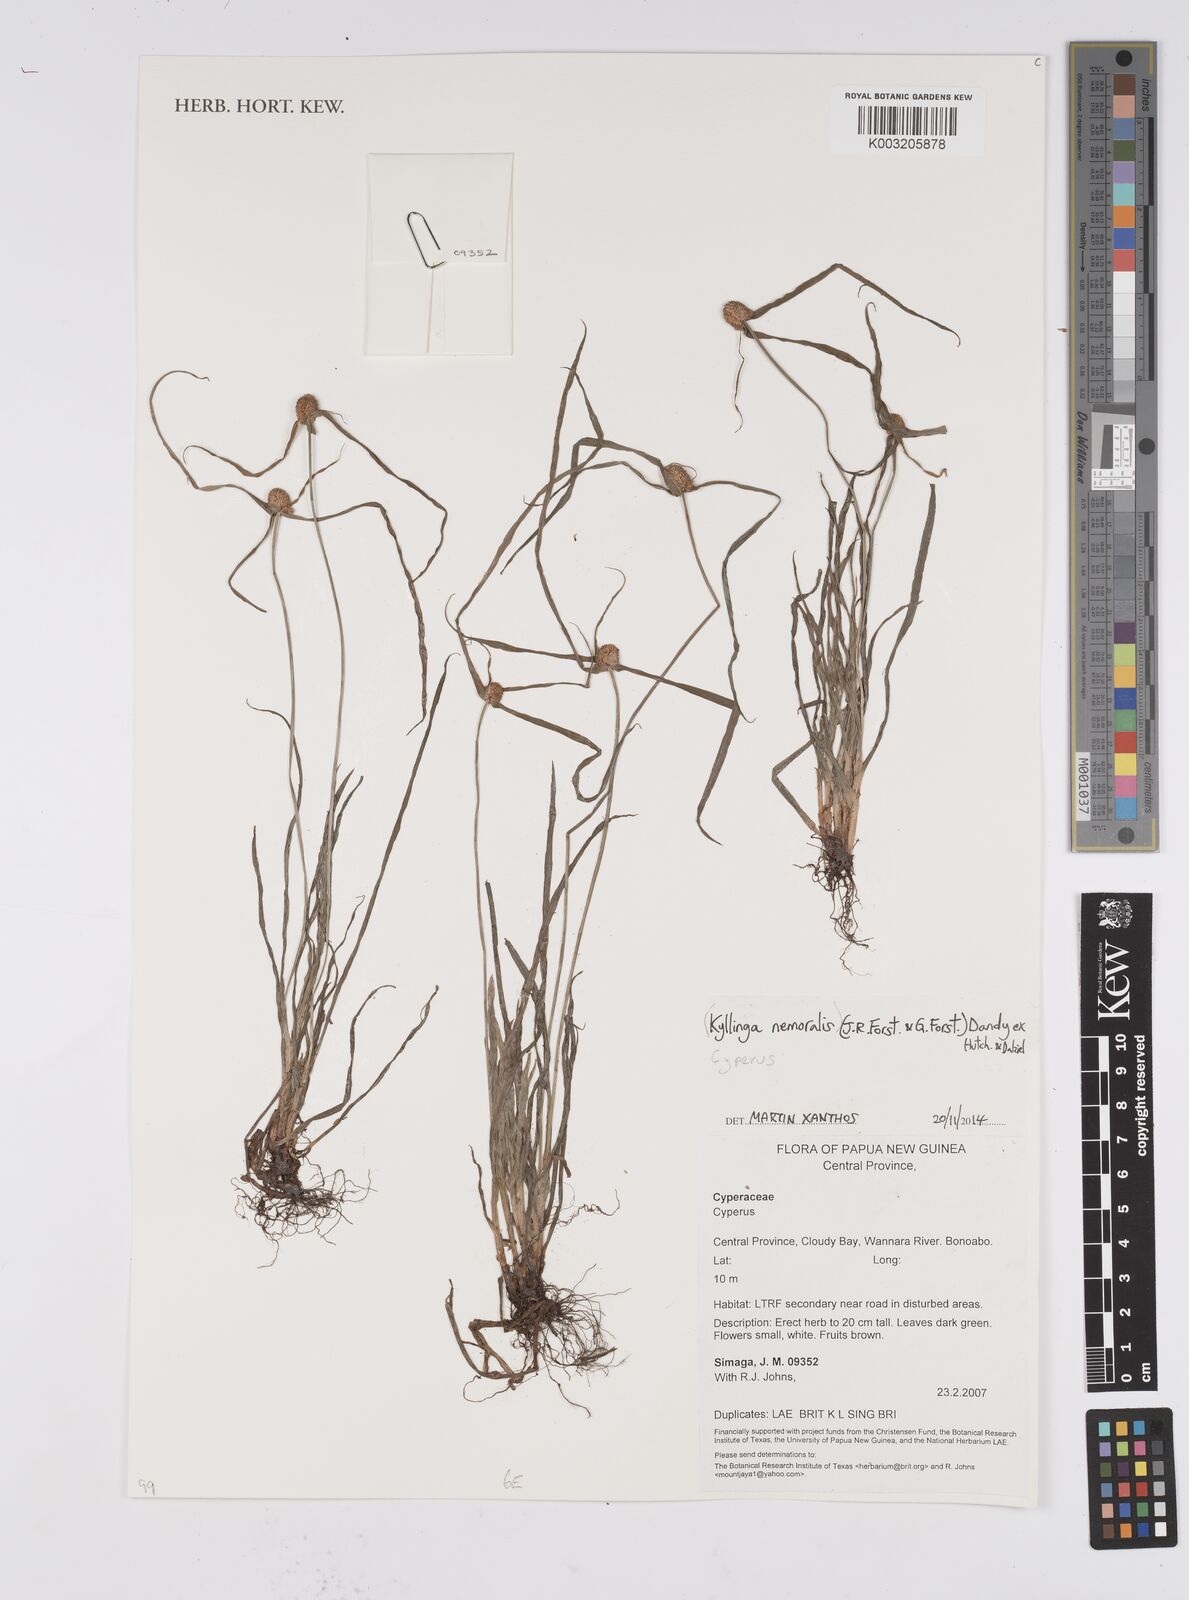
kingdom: Plantae
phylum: Tracheophyta
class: Liliopsida
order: Poales
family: Cyperaceae
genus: Cyperus
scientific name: Cyperus nemoralis
